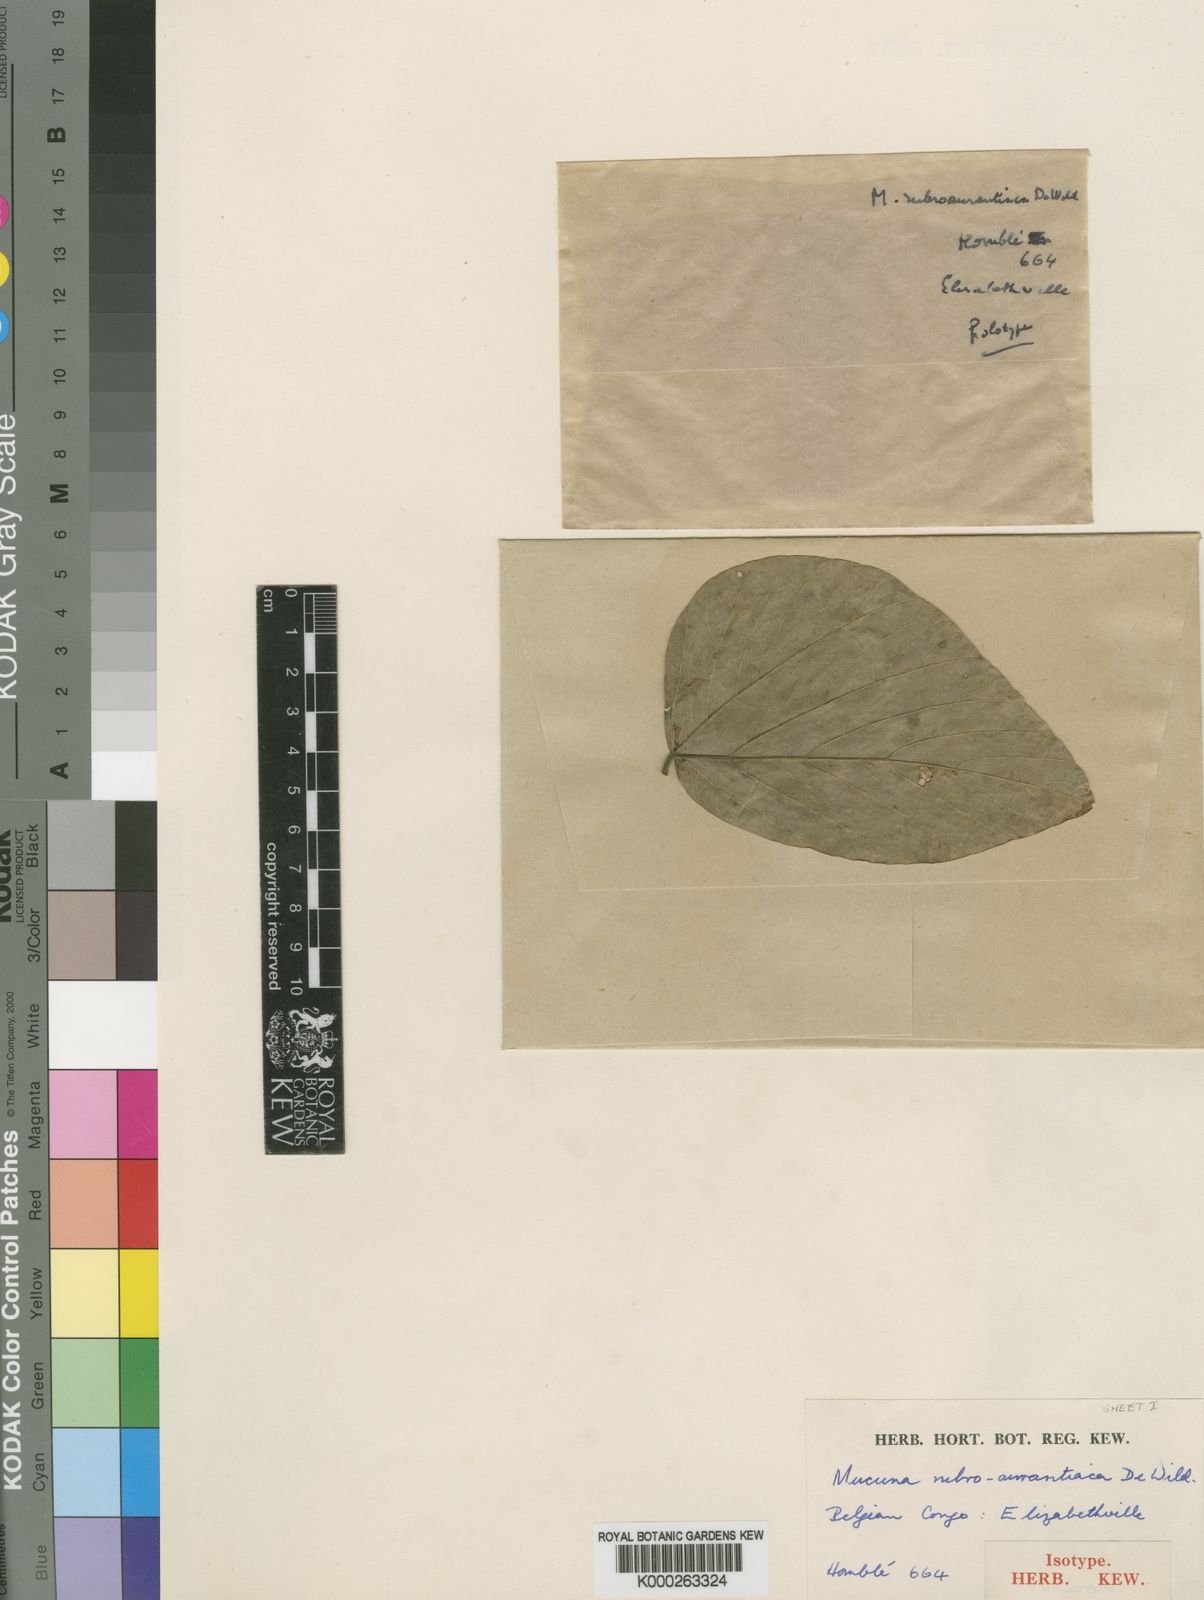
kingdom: Plantae
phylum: Tracheophyta
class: Magnoliopsida
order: Fabales
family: Fabaceae
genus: Mucuna
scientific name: Mucuna poggei
